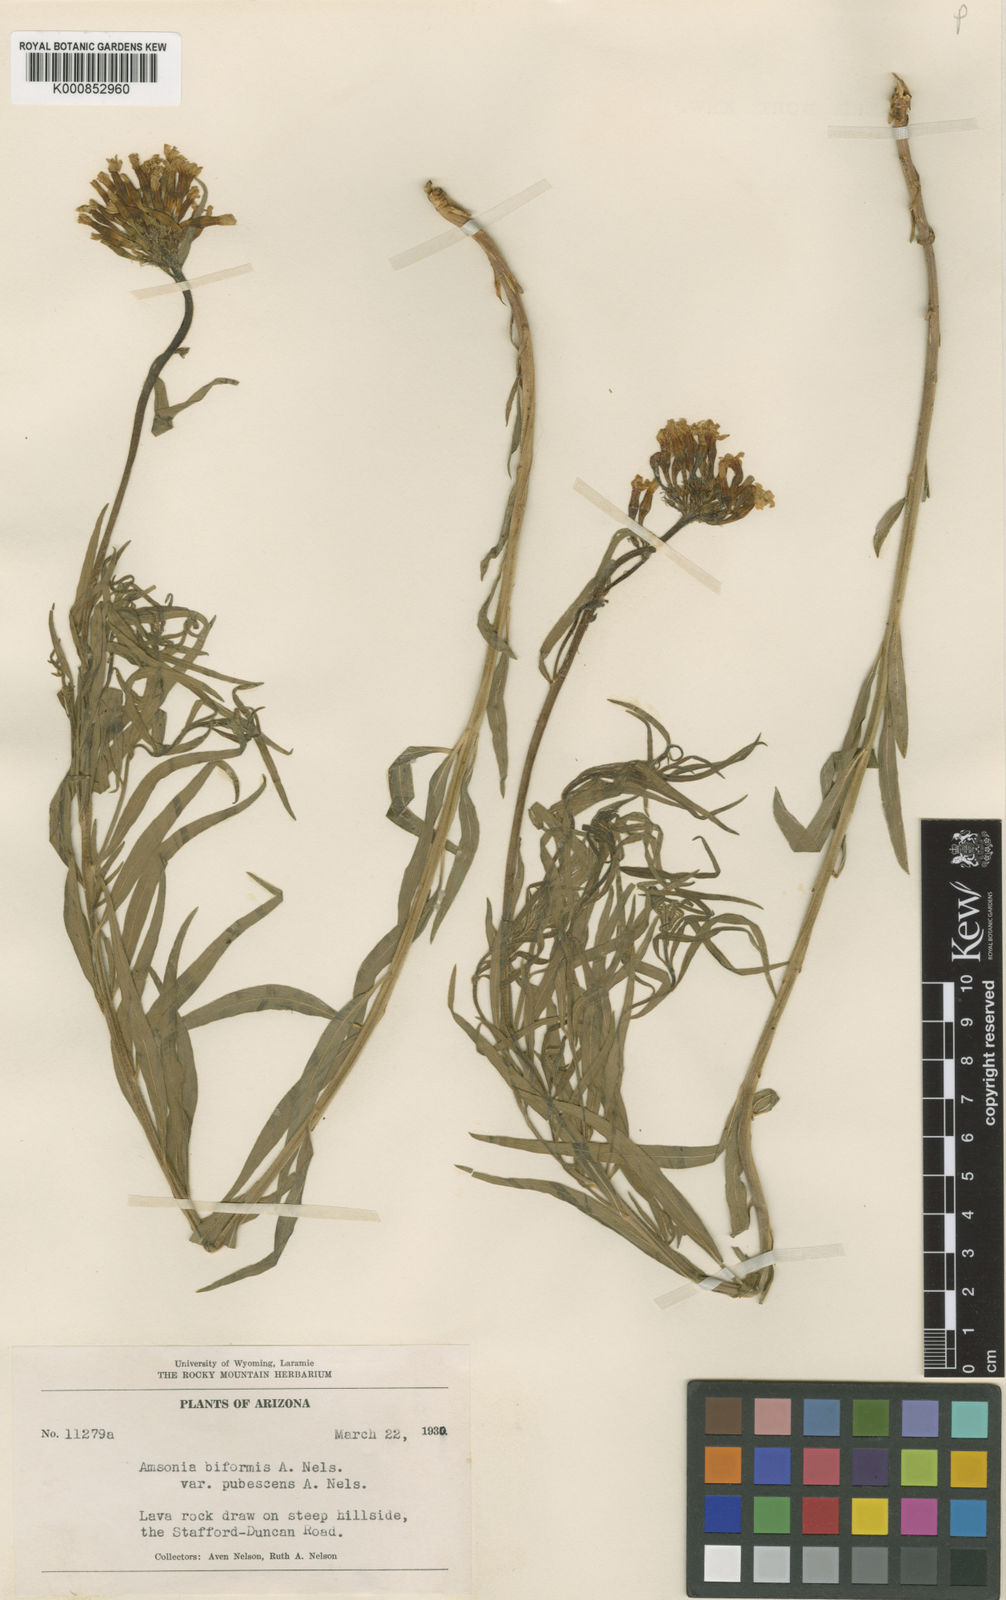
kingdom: Plantae
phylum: Tracheophyta
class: Magnoliopsida
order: Gentianales
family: Apocynaceae
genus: Amsonia
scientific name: Amsonia palmeri
